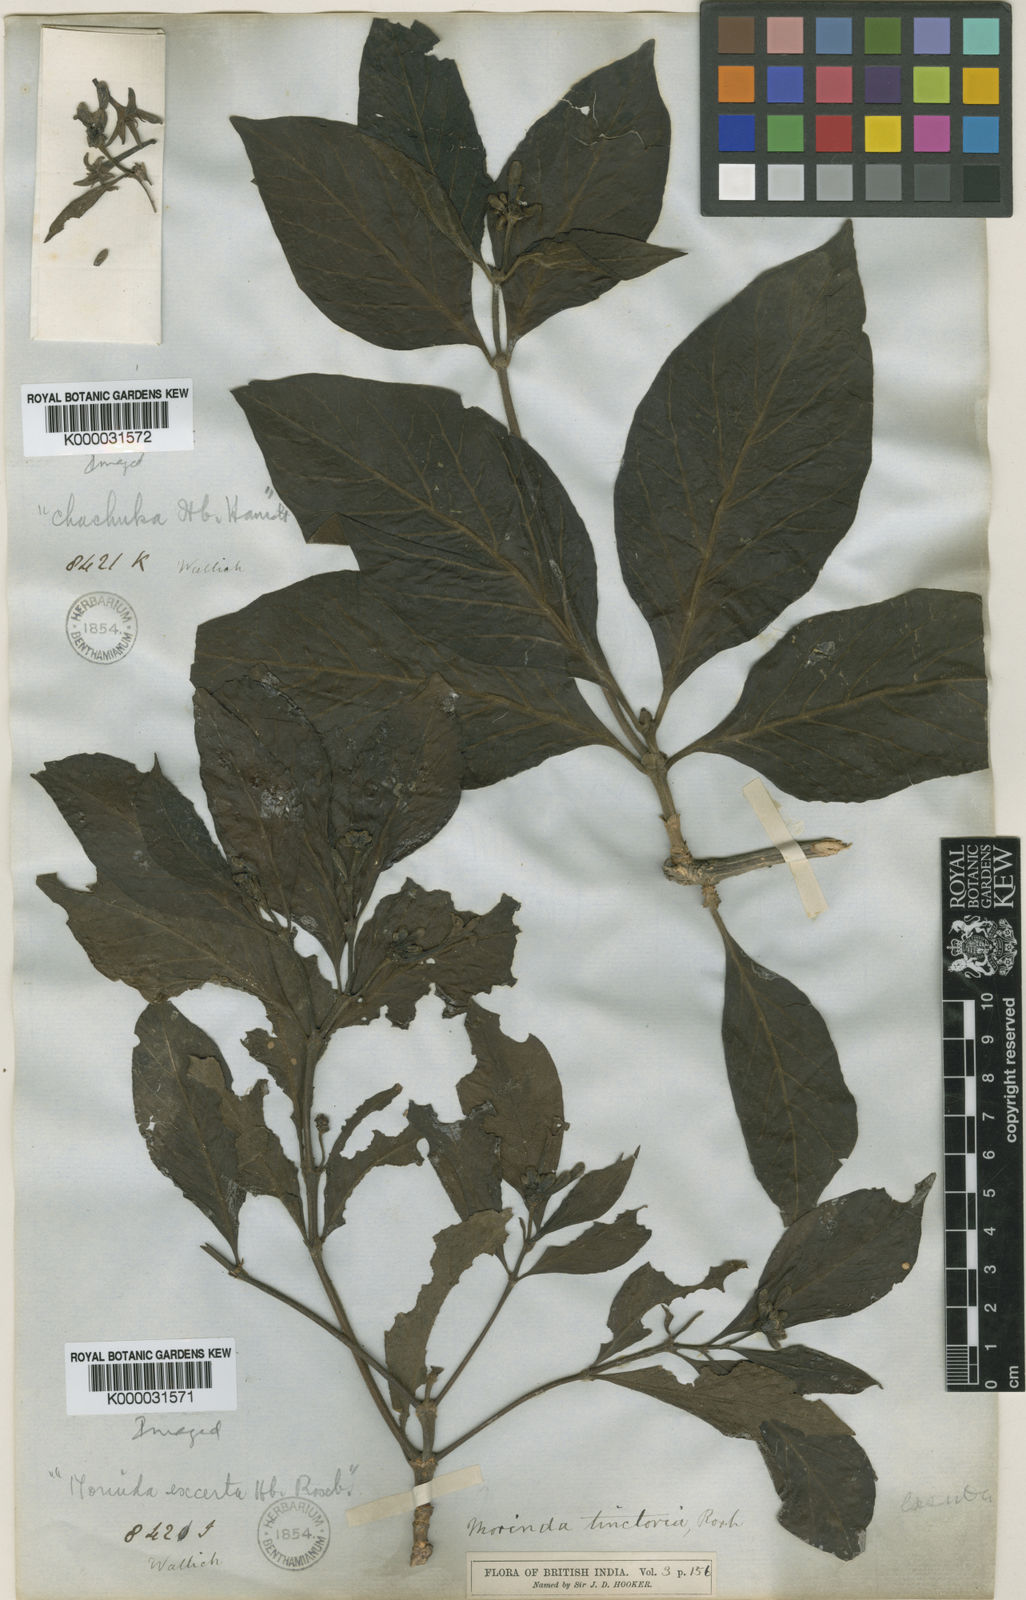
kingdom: Plantae
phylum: Tracheophyta
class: Magnoliopsida
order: Gentianales
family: Rubiaceae
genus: Morinda
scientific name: Morinda coreia
